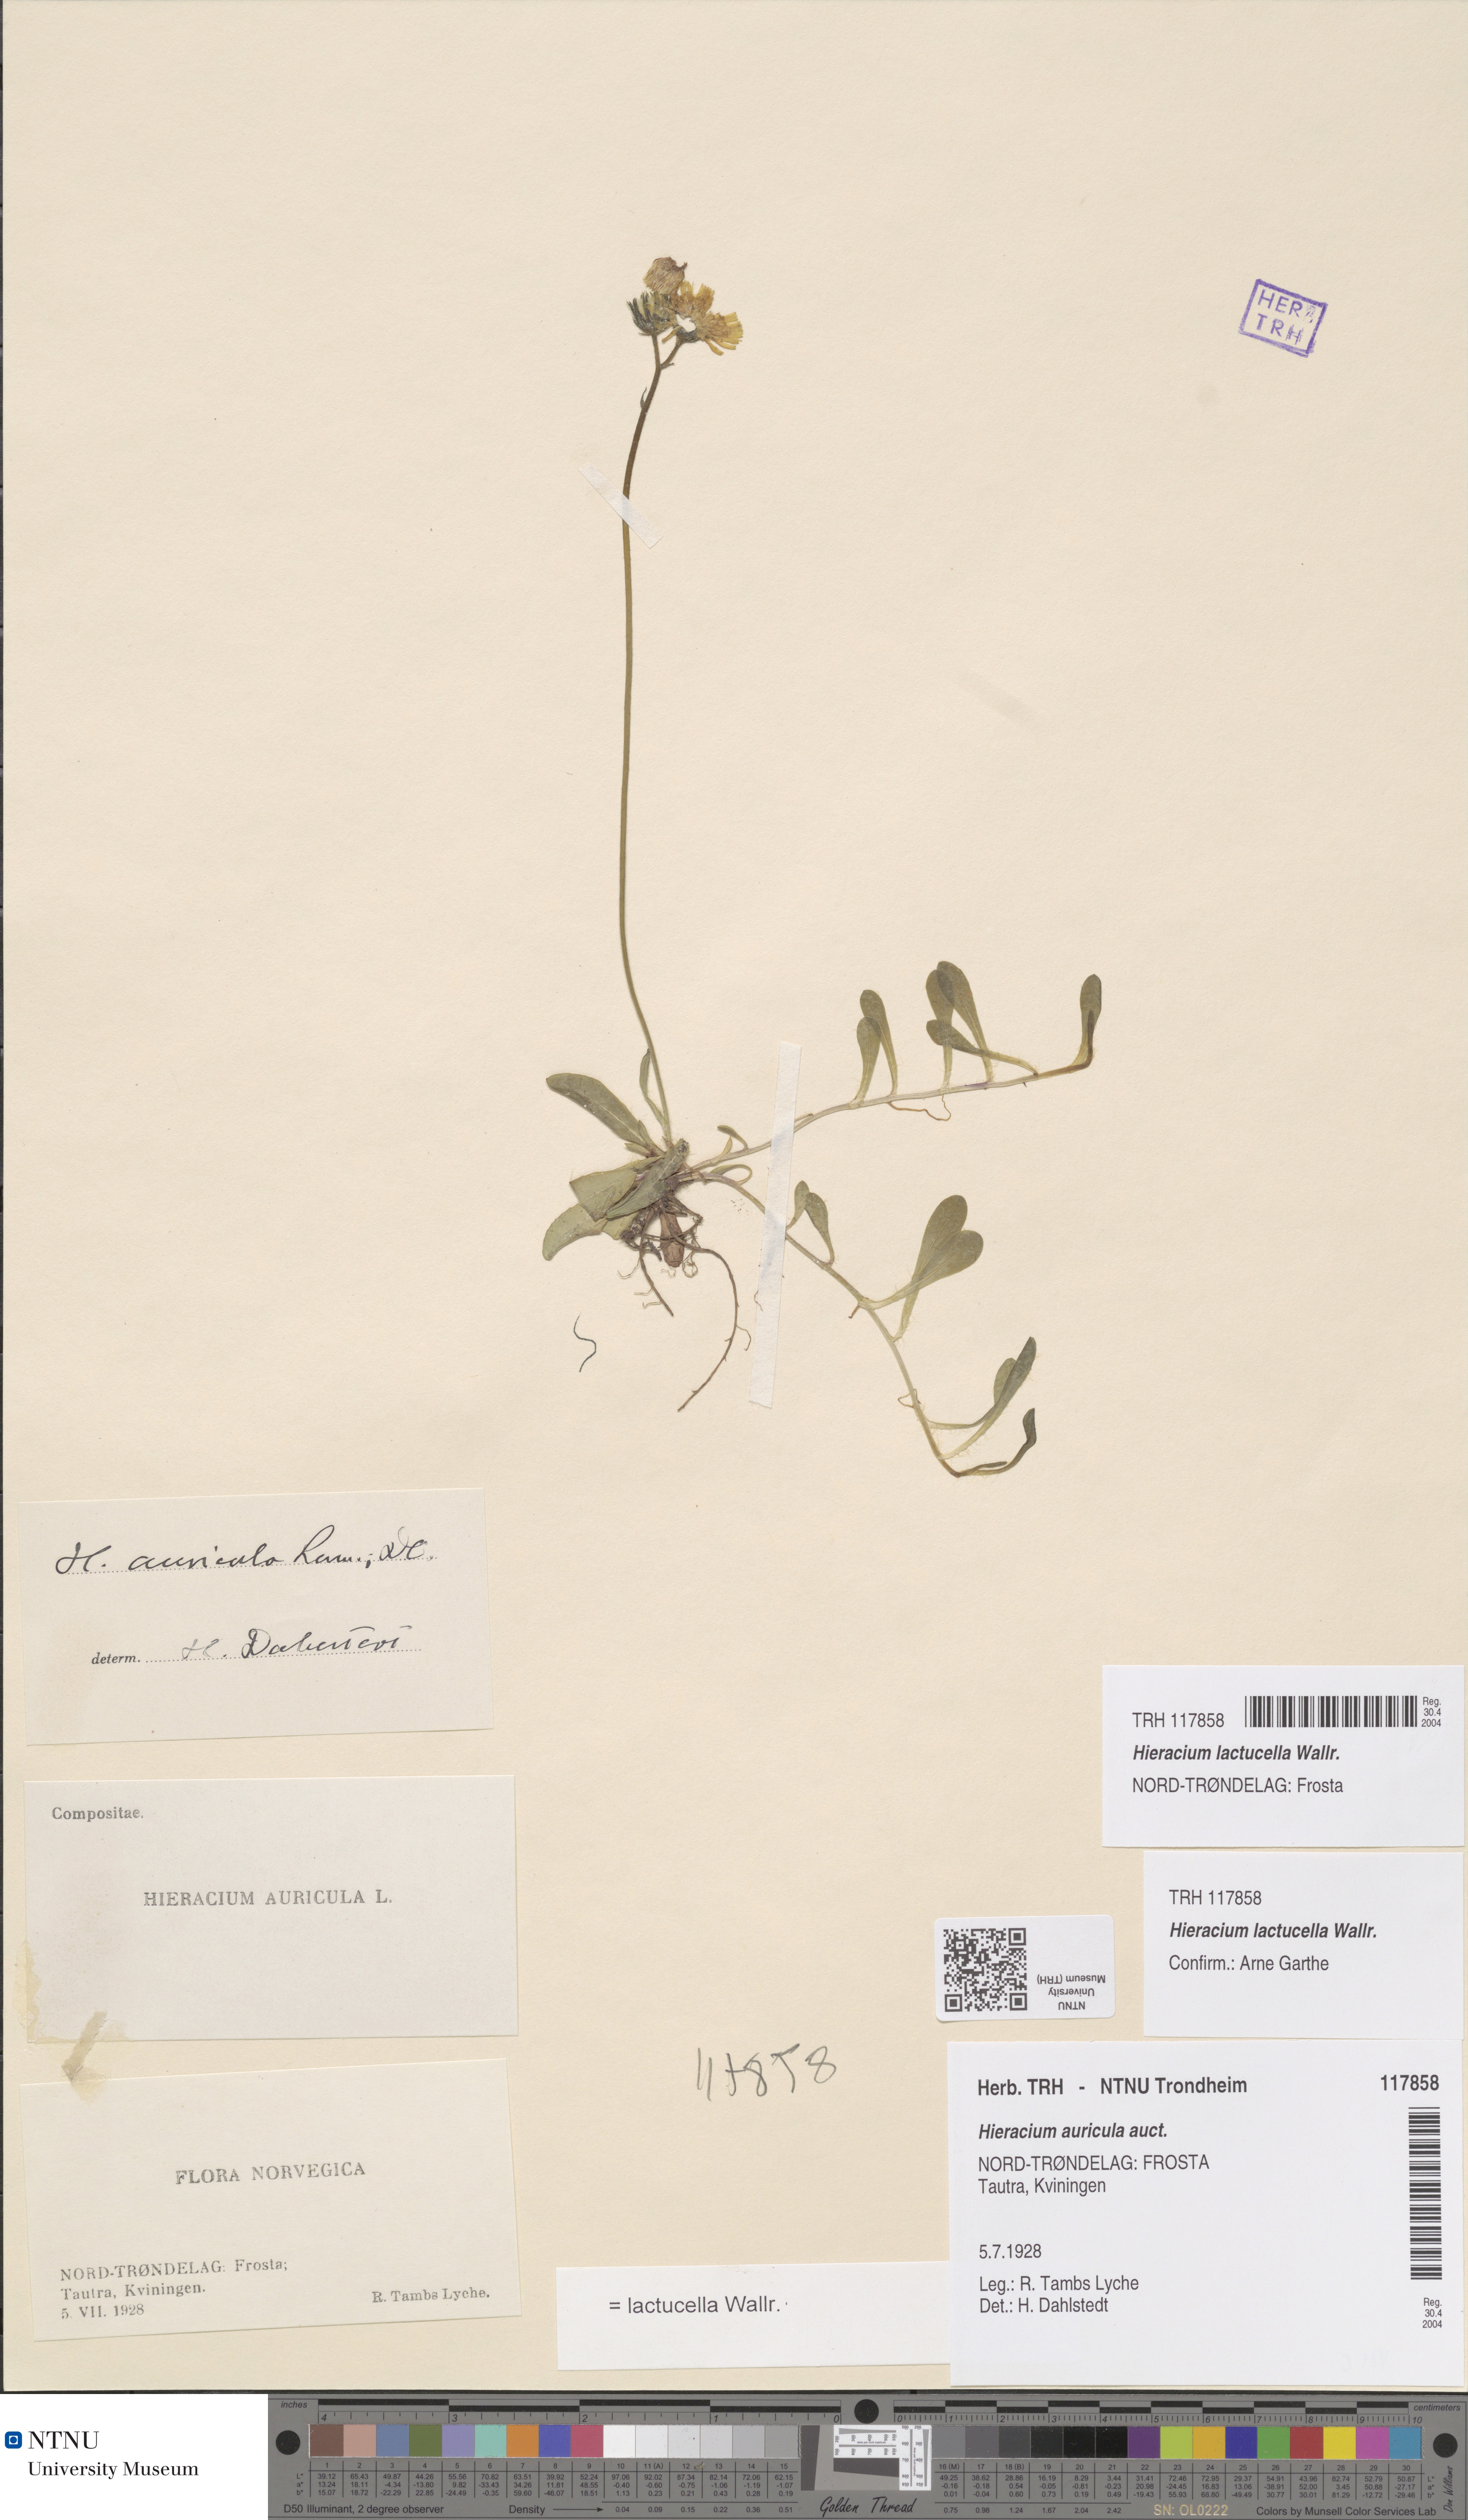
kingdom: Plantae
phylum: Tracheophyta
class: Magnoliopsida
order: Asterales
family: Asteraceae
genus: Pilosella
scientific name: Pilosella lactucella
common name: Glaucous fox-and-cubs
